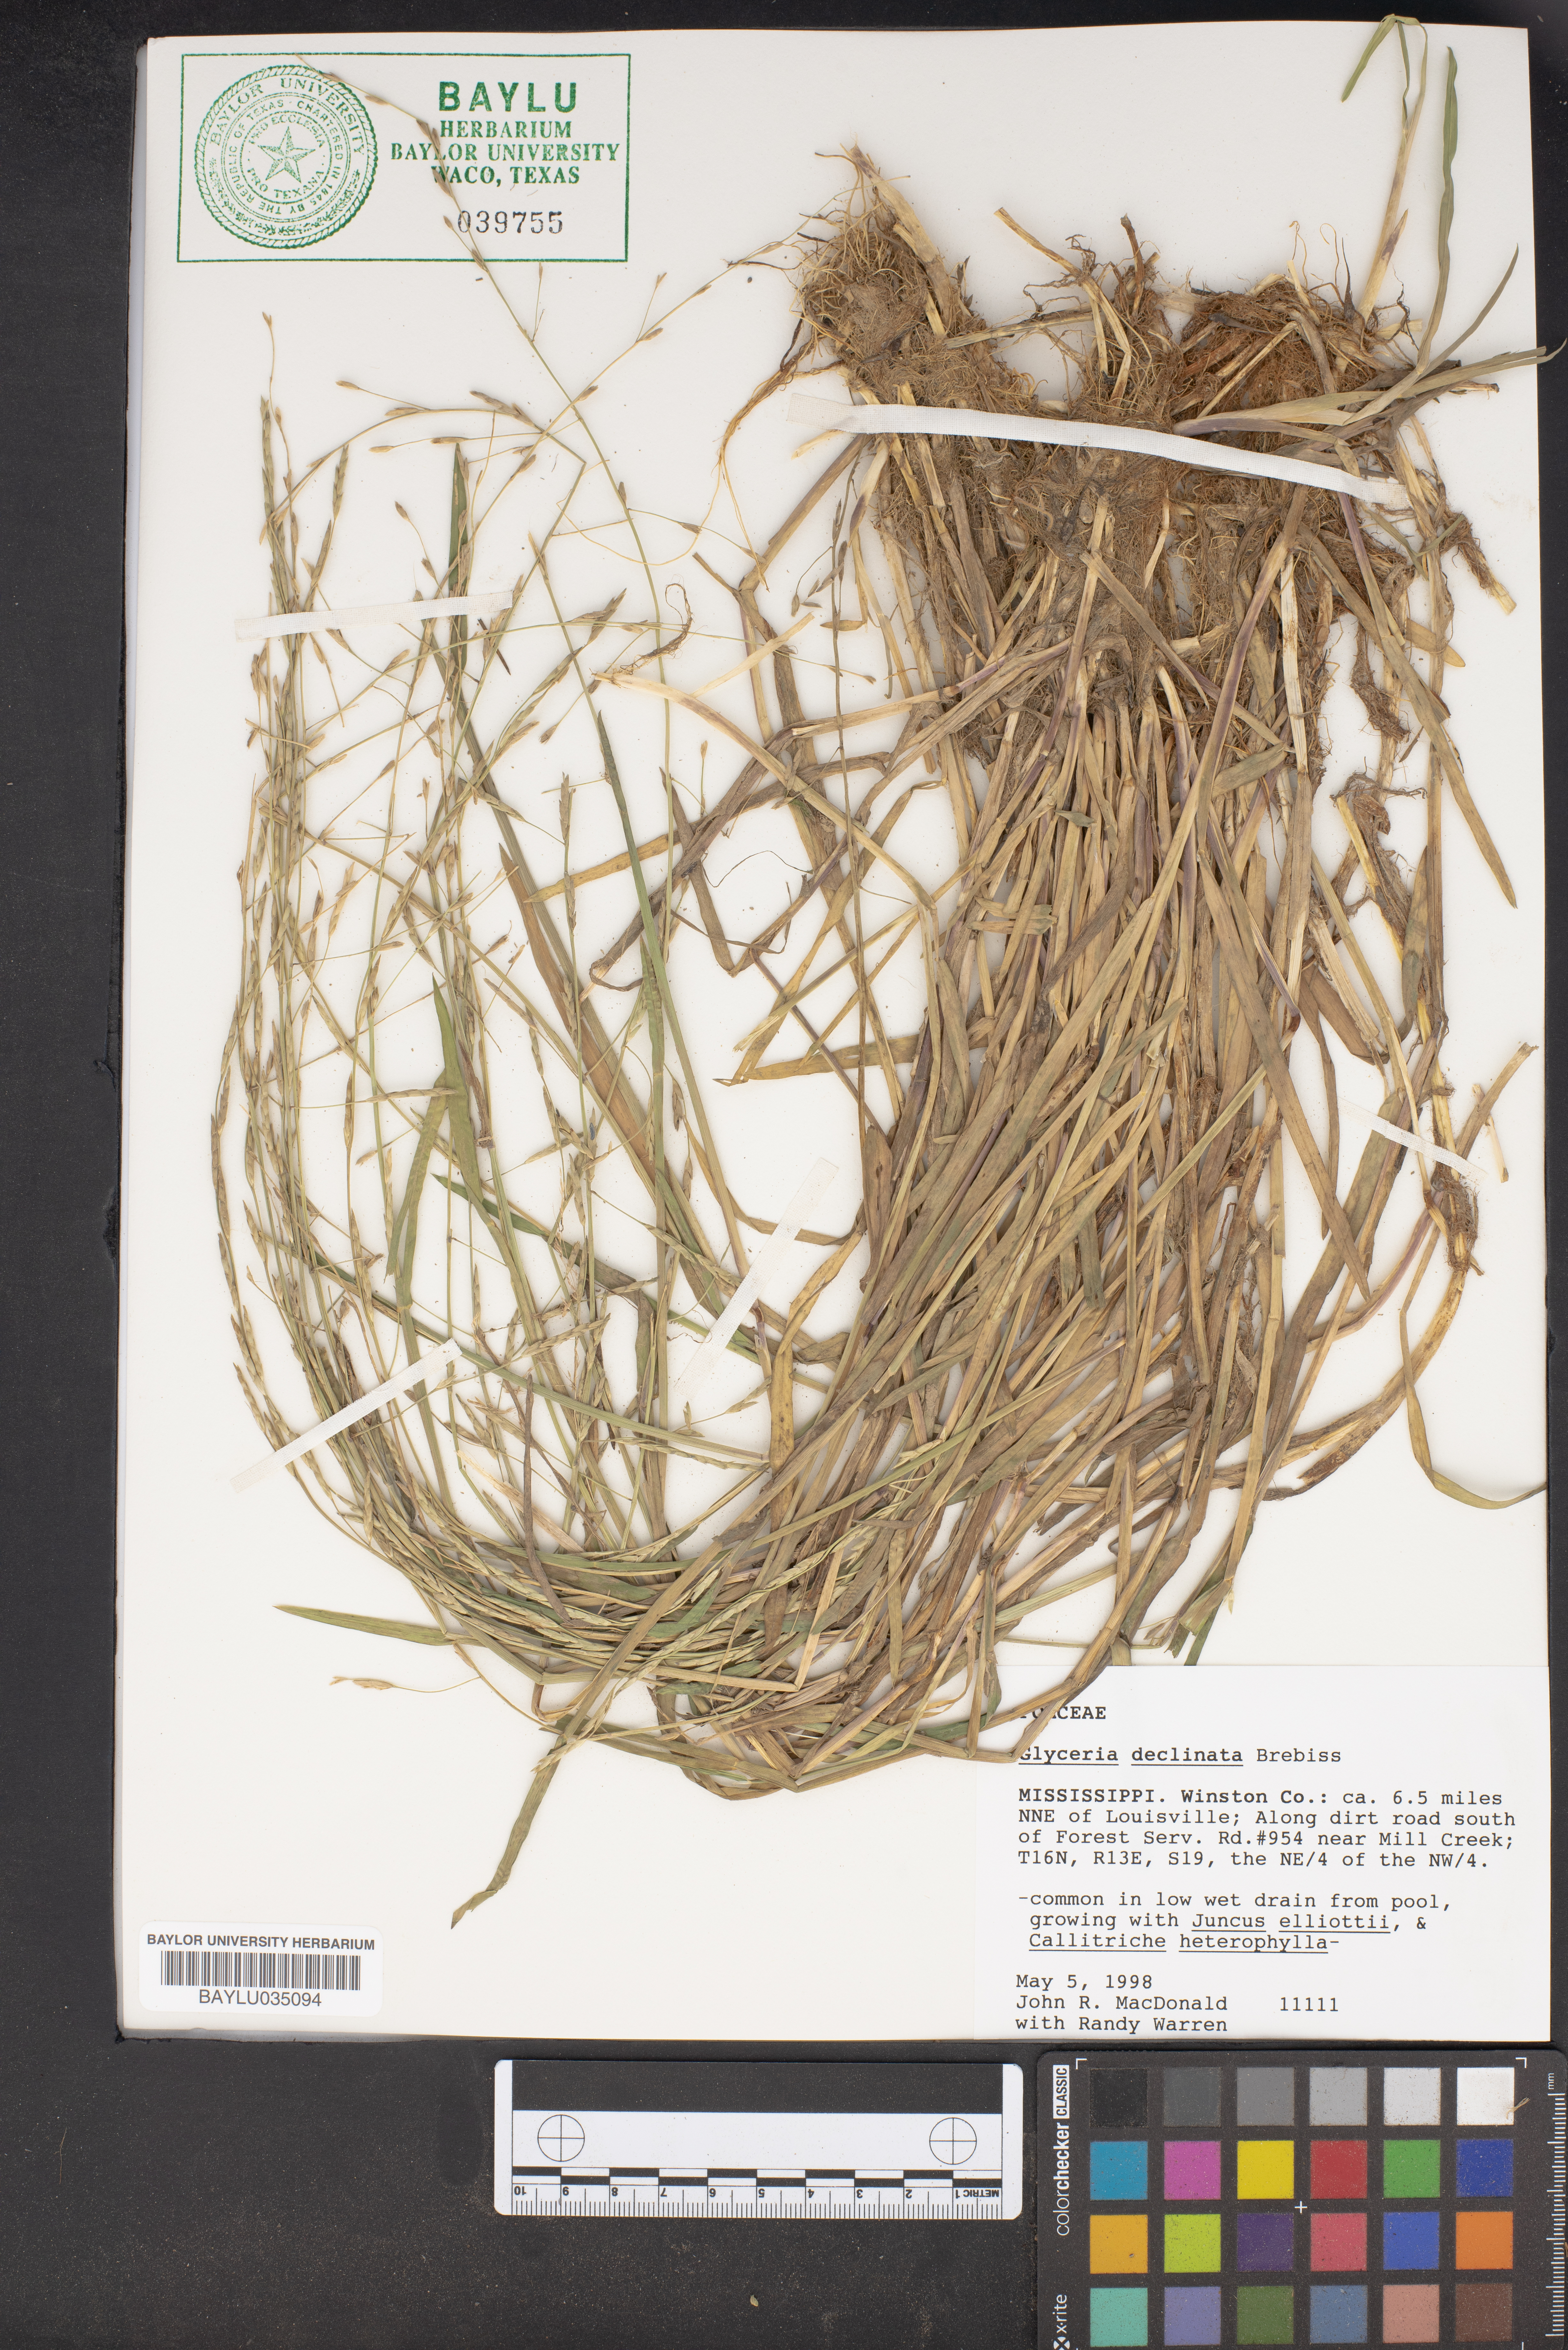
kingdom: Plantae
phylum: Tracheophyta
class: Liliopsida
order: Poales
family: Poaceae
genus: Glyceria
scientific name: Glyceria declinata
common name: Small sweet-grass
